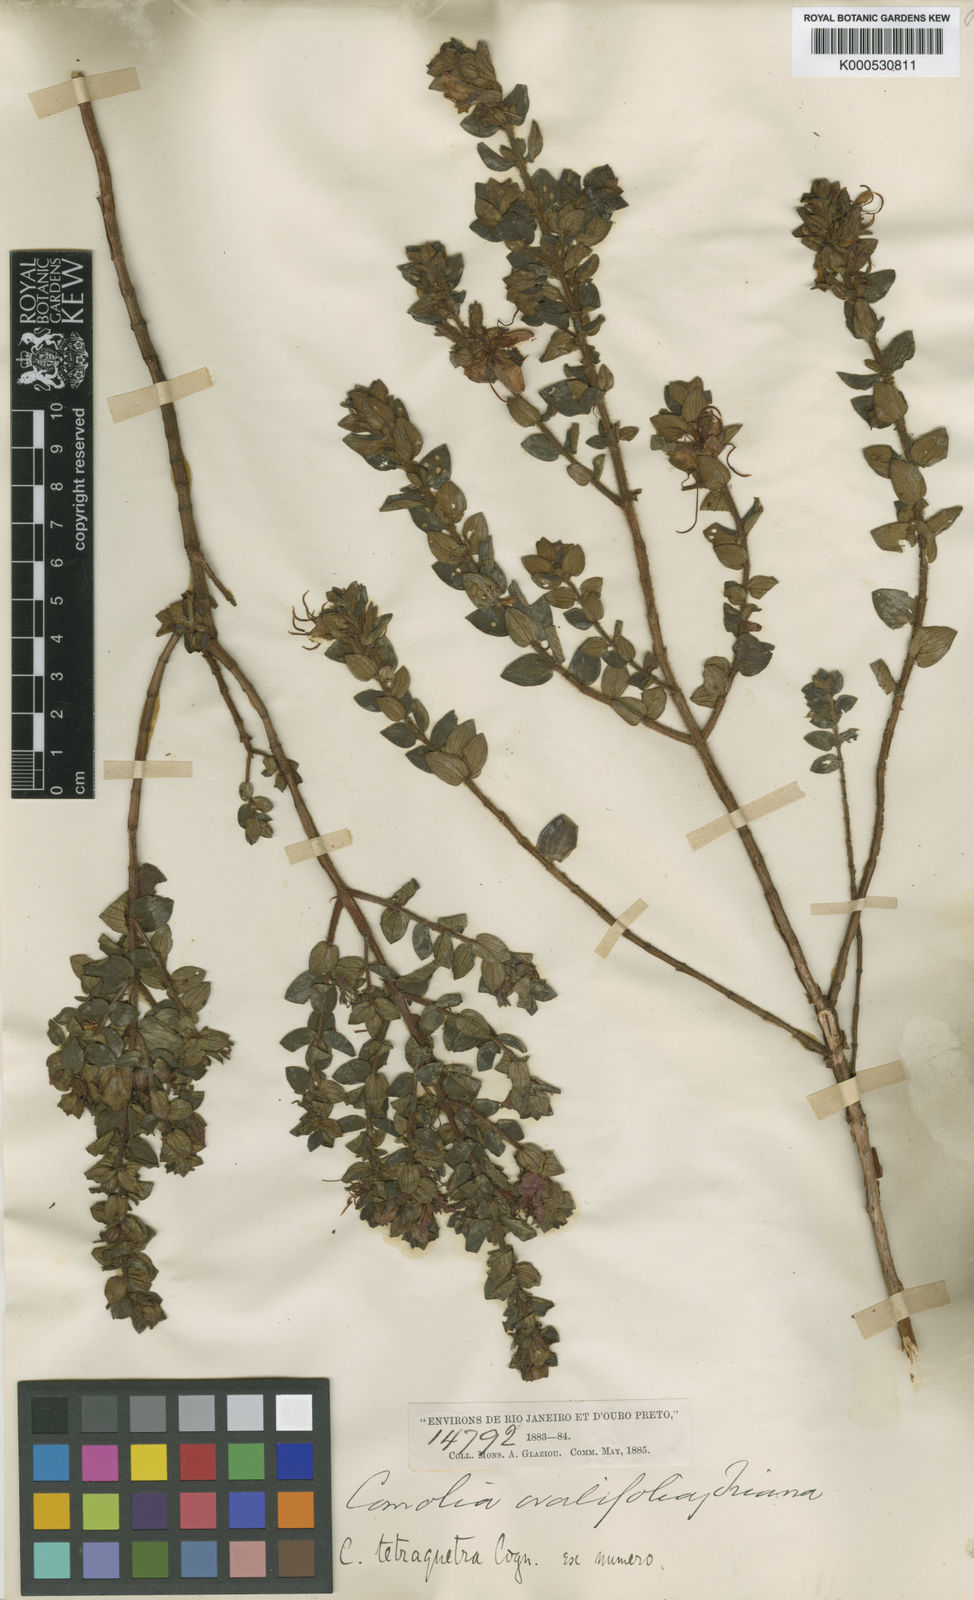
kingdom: Plantae
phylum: Tracheophyta
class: Magnoliopsida
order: Myrtales
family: Melastomataceae
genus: Fritzschia
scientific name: Fritzschia sessilis
